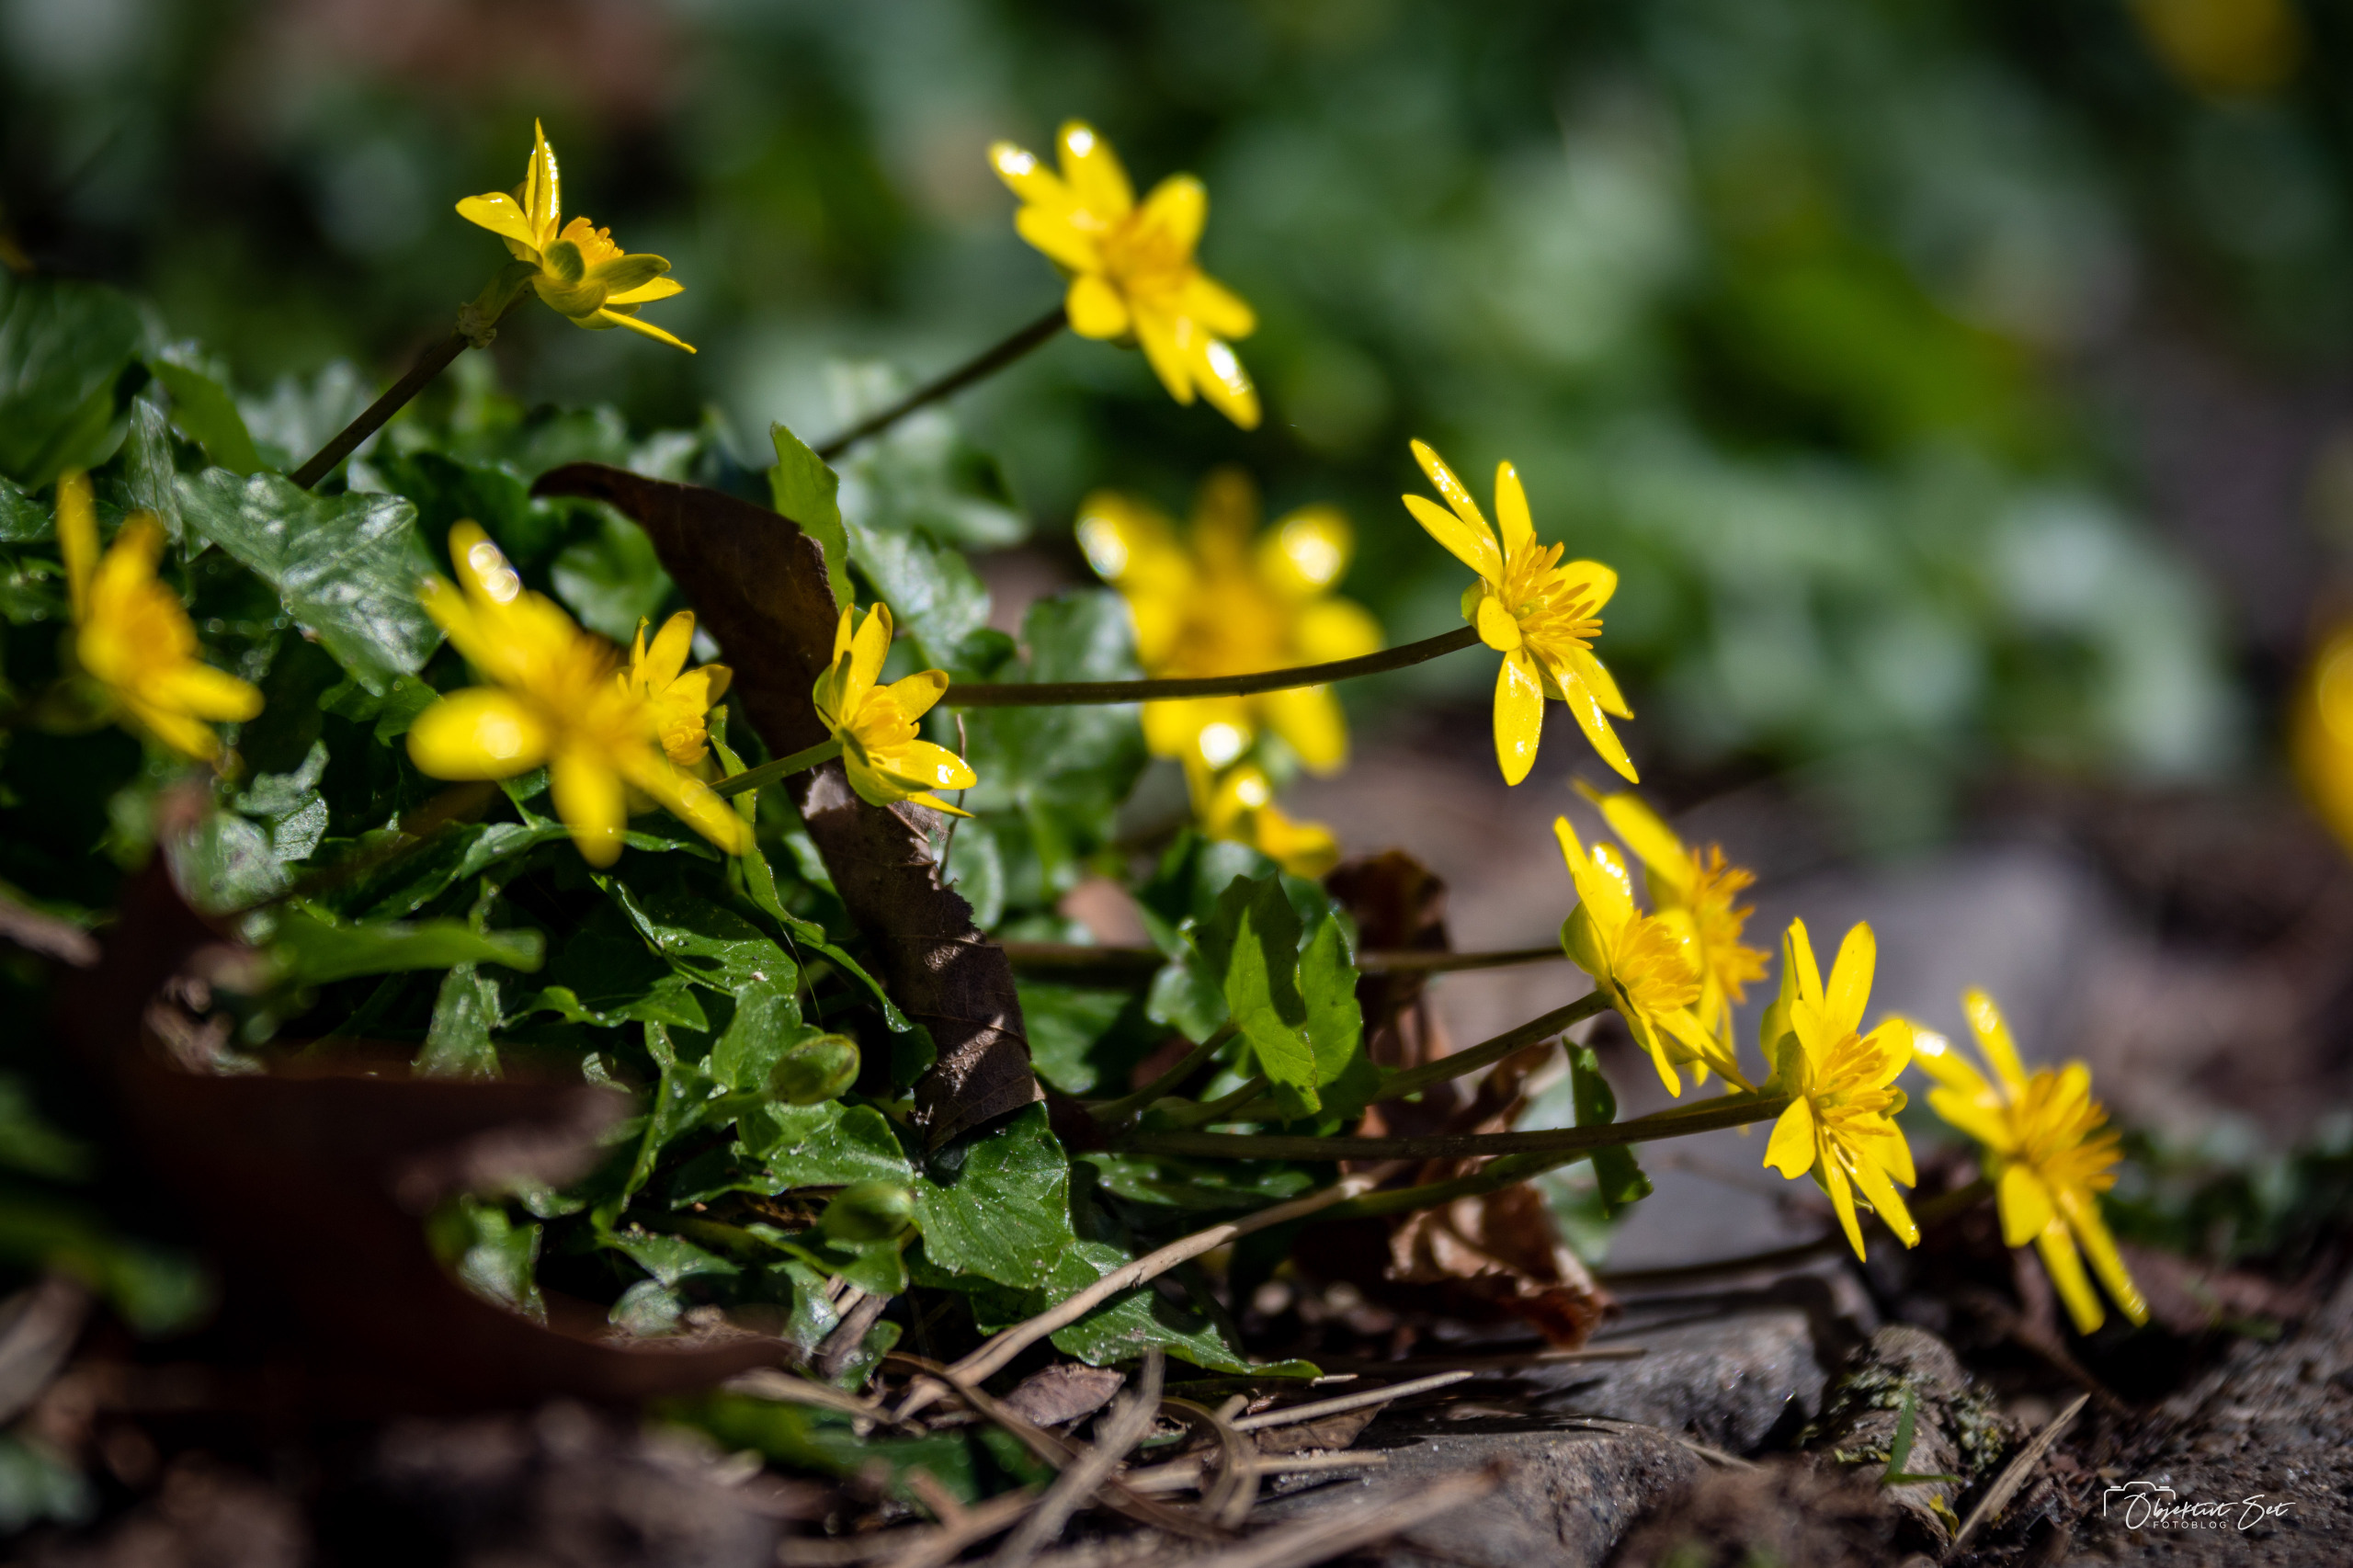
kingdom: Plantae
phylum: Tracheophyta
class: Magnoliopsida
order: Ranunculales
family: Ranunculaceae
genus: Ficaria
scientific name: Ficaria verna
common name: Vorterod
